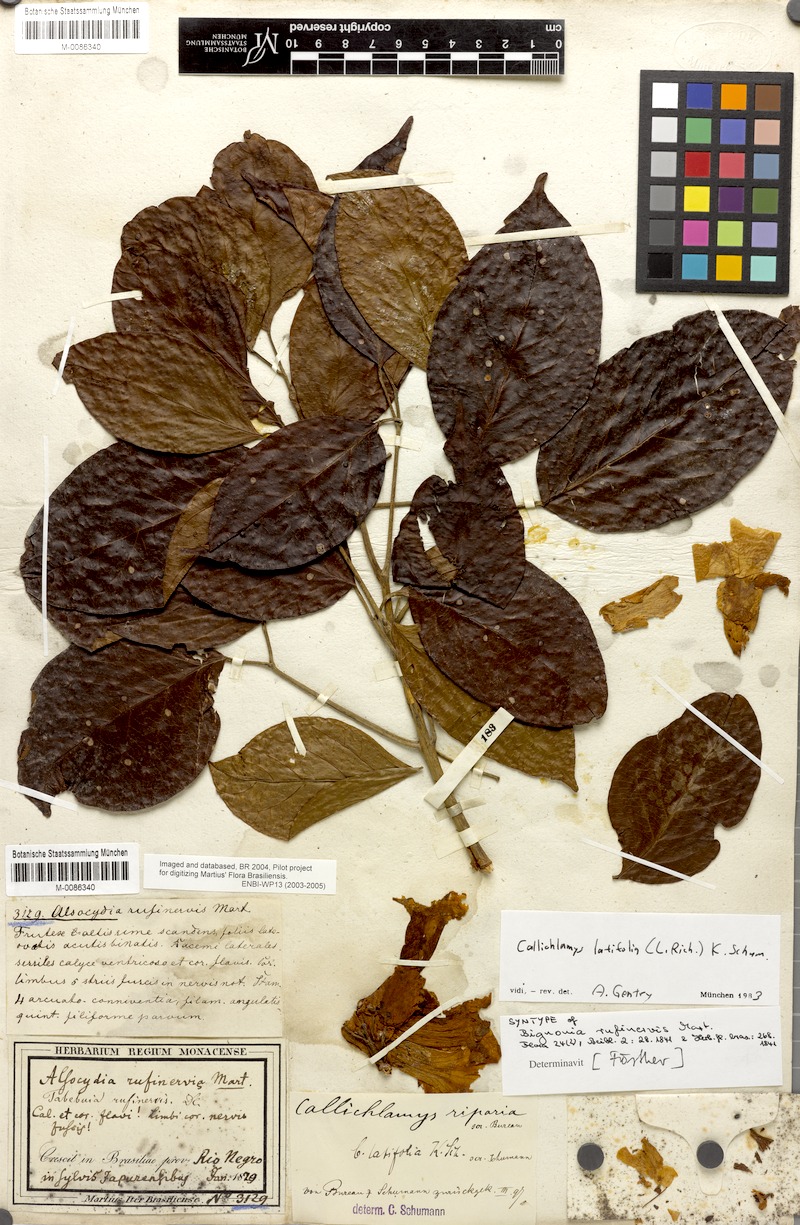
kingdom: Plantae
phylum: Tracheophyta
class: Magnoliopsida
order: Lamiales
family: Bignoniaceae
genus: Callichlamys
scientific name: Callichlamys latifolia
